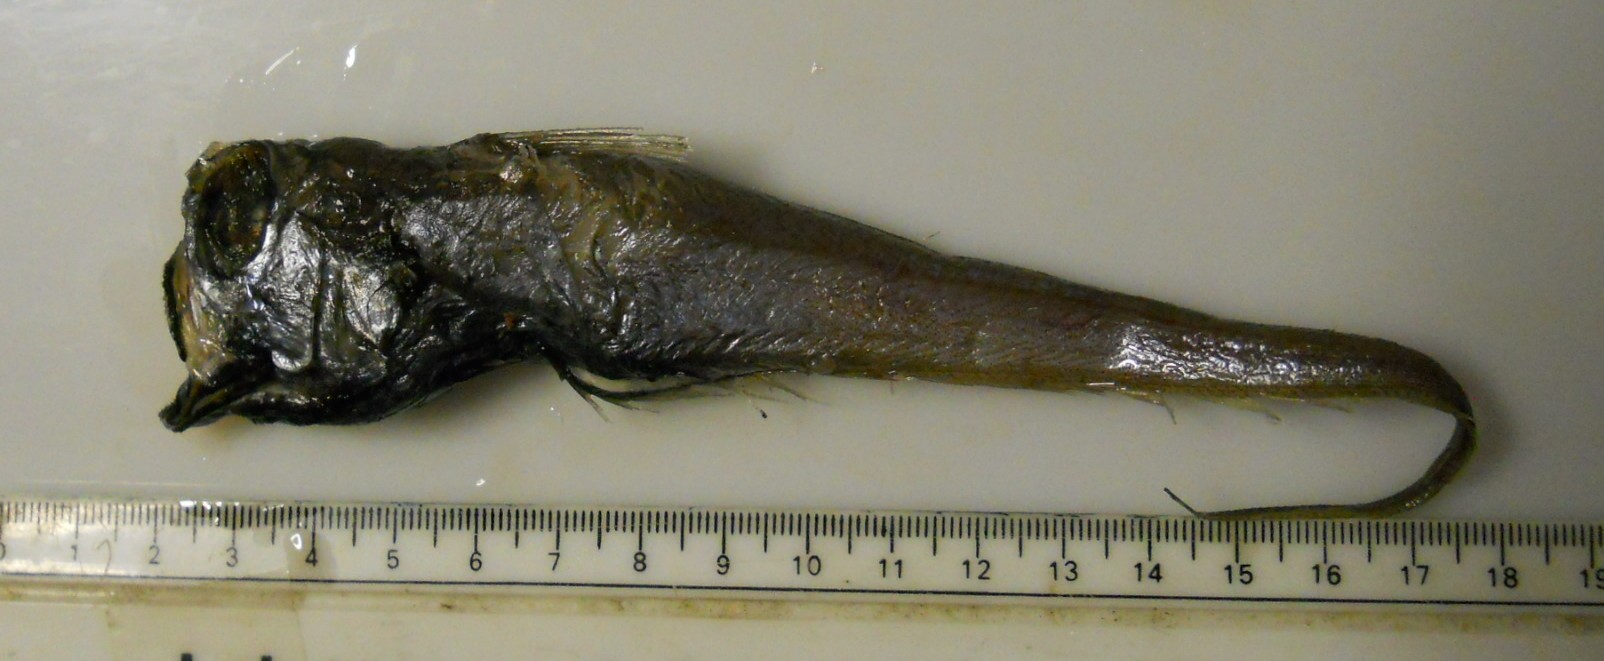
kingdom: Animalia
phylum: Chordata
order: Gadiformes
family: Macrouridae
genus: Ventrifossa
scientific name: Ventrifossa mystax
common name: Plainfin grenadier
